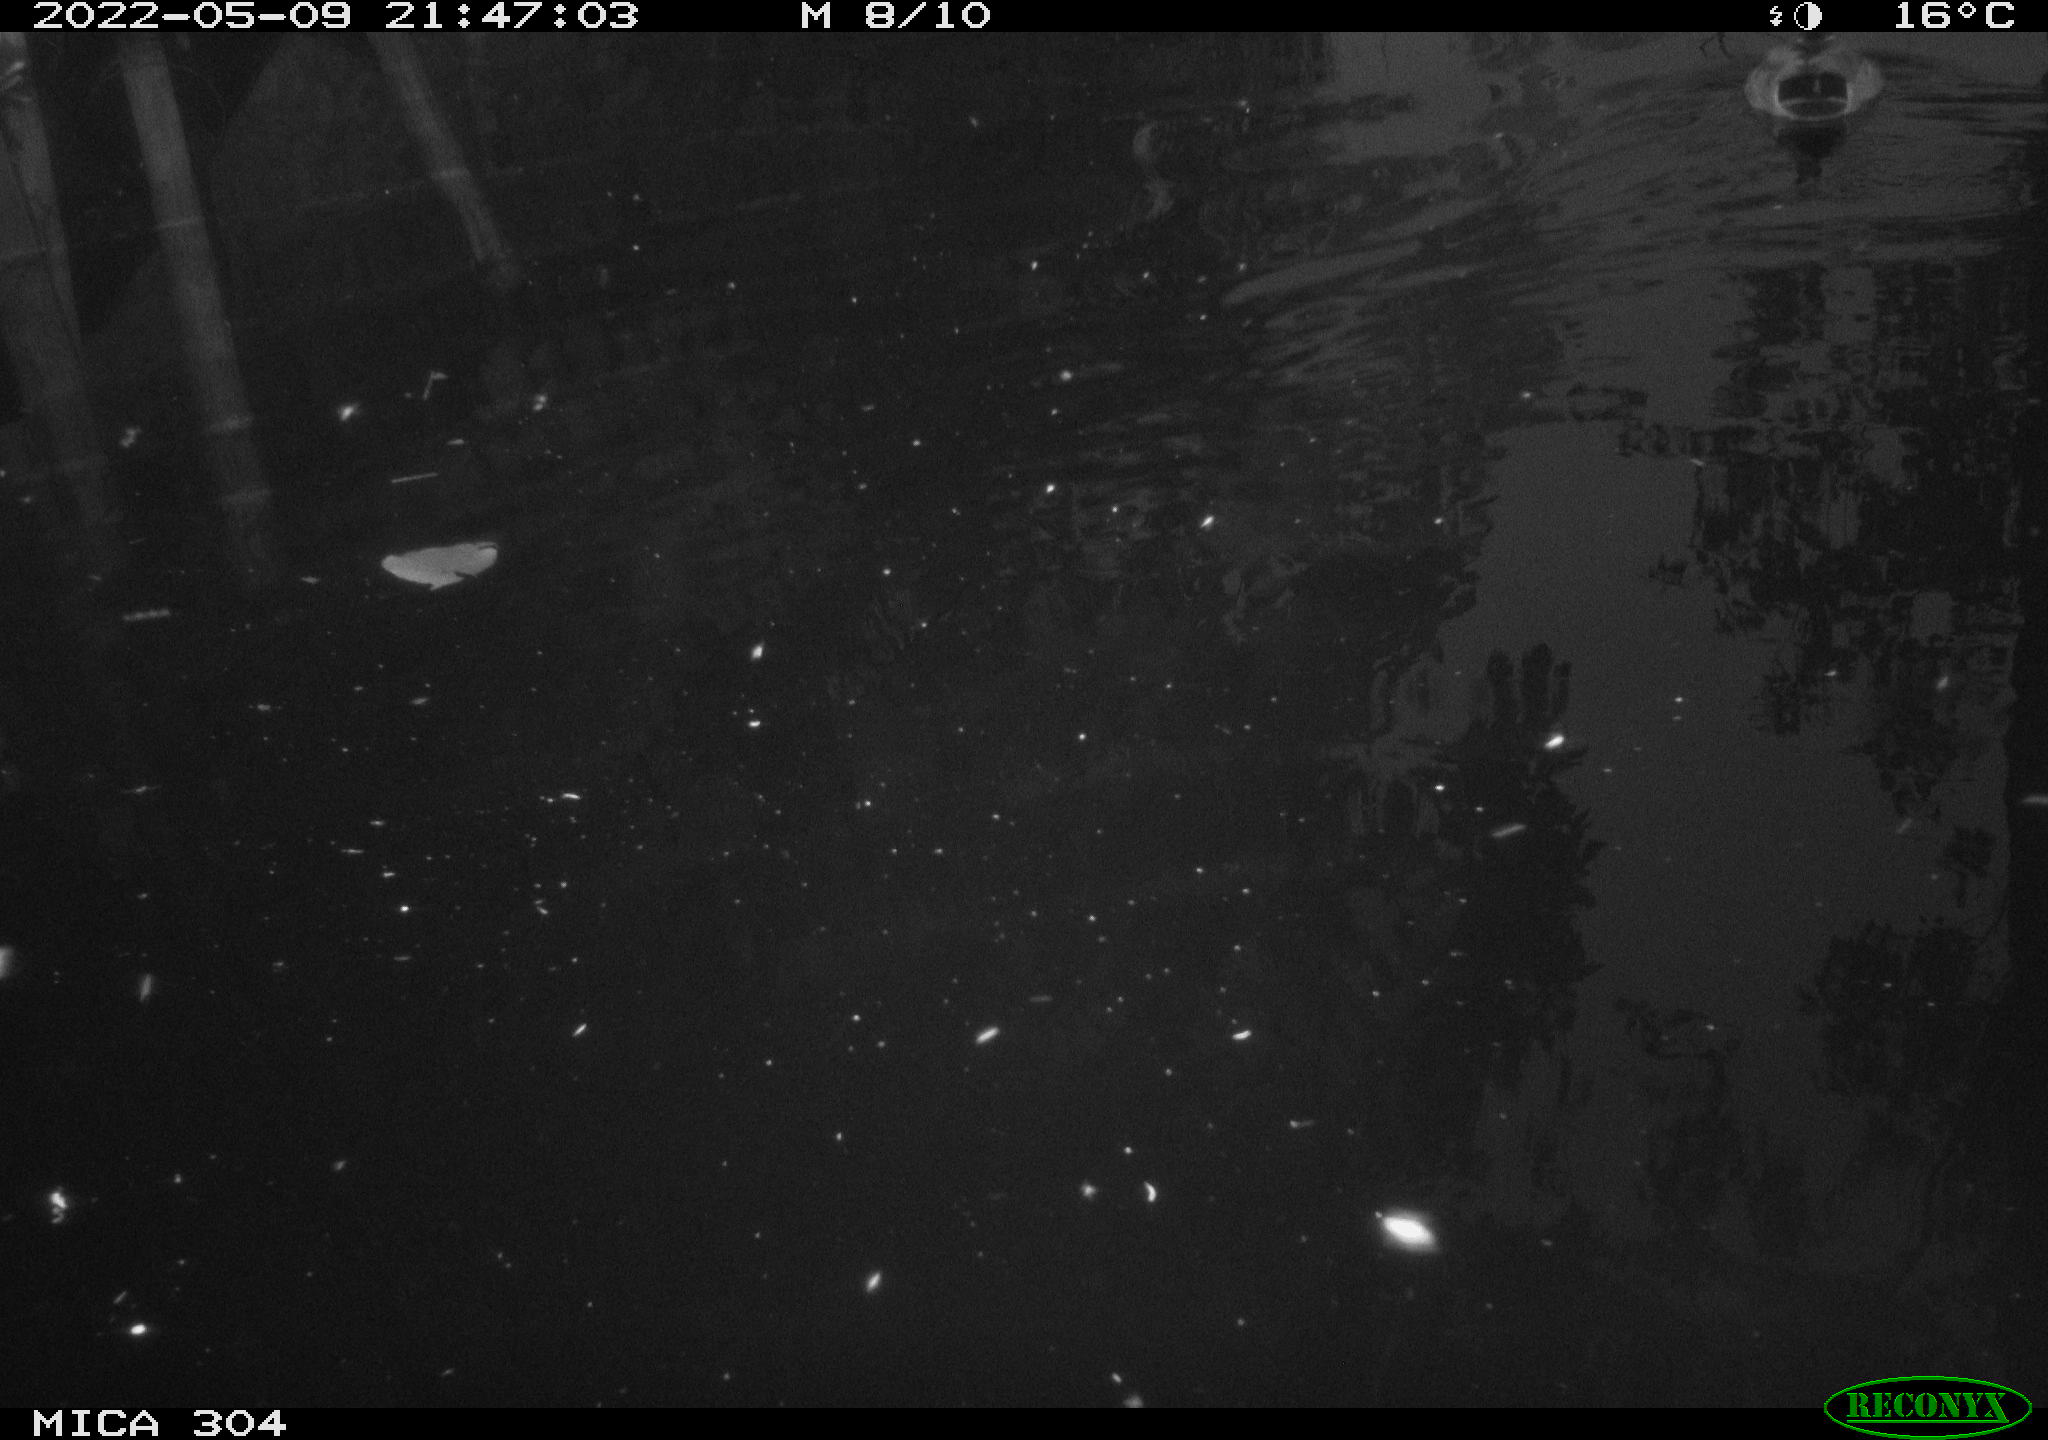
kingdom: Animalia
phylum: Chordata
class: Aves
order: Anseriformes
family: Anatidae
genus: Anas
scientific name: Anas platyrhynchos
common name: Mallard
